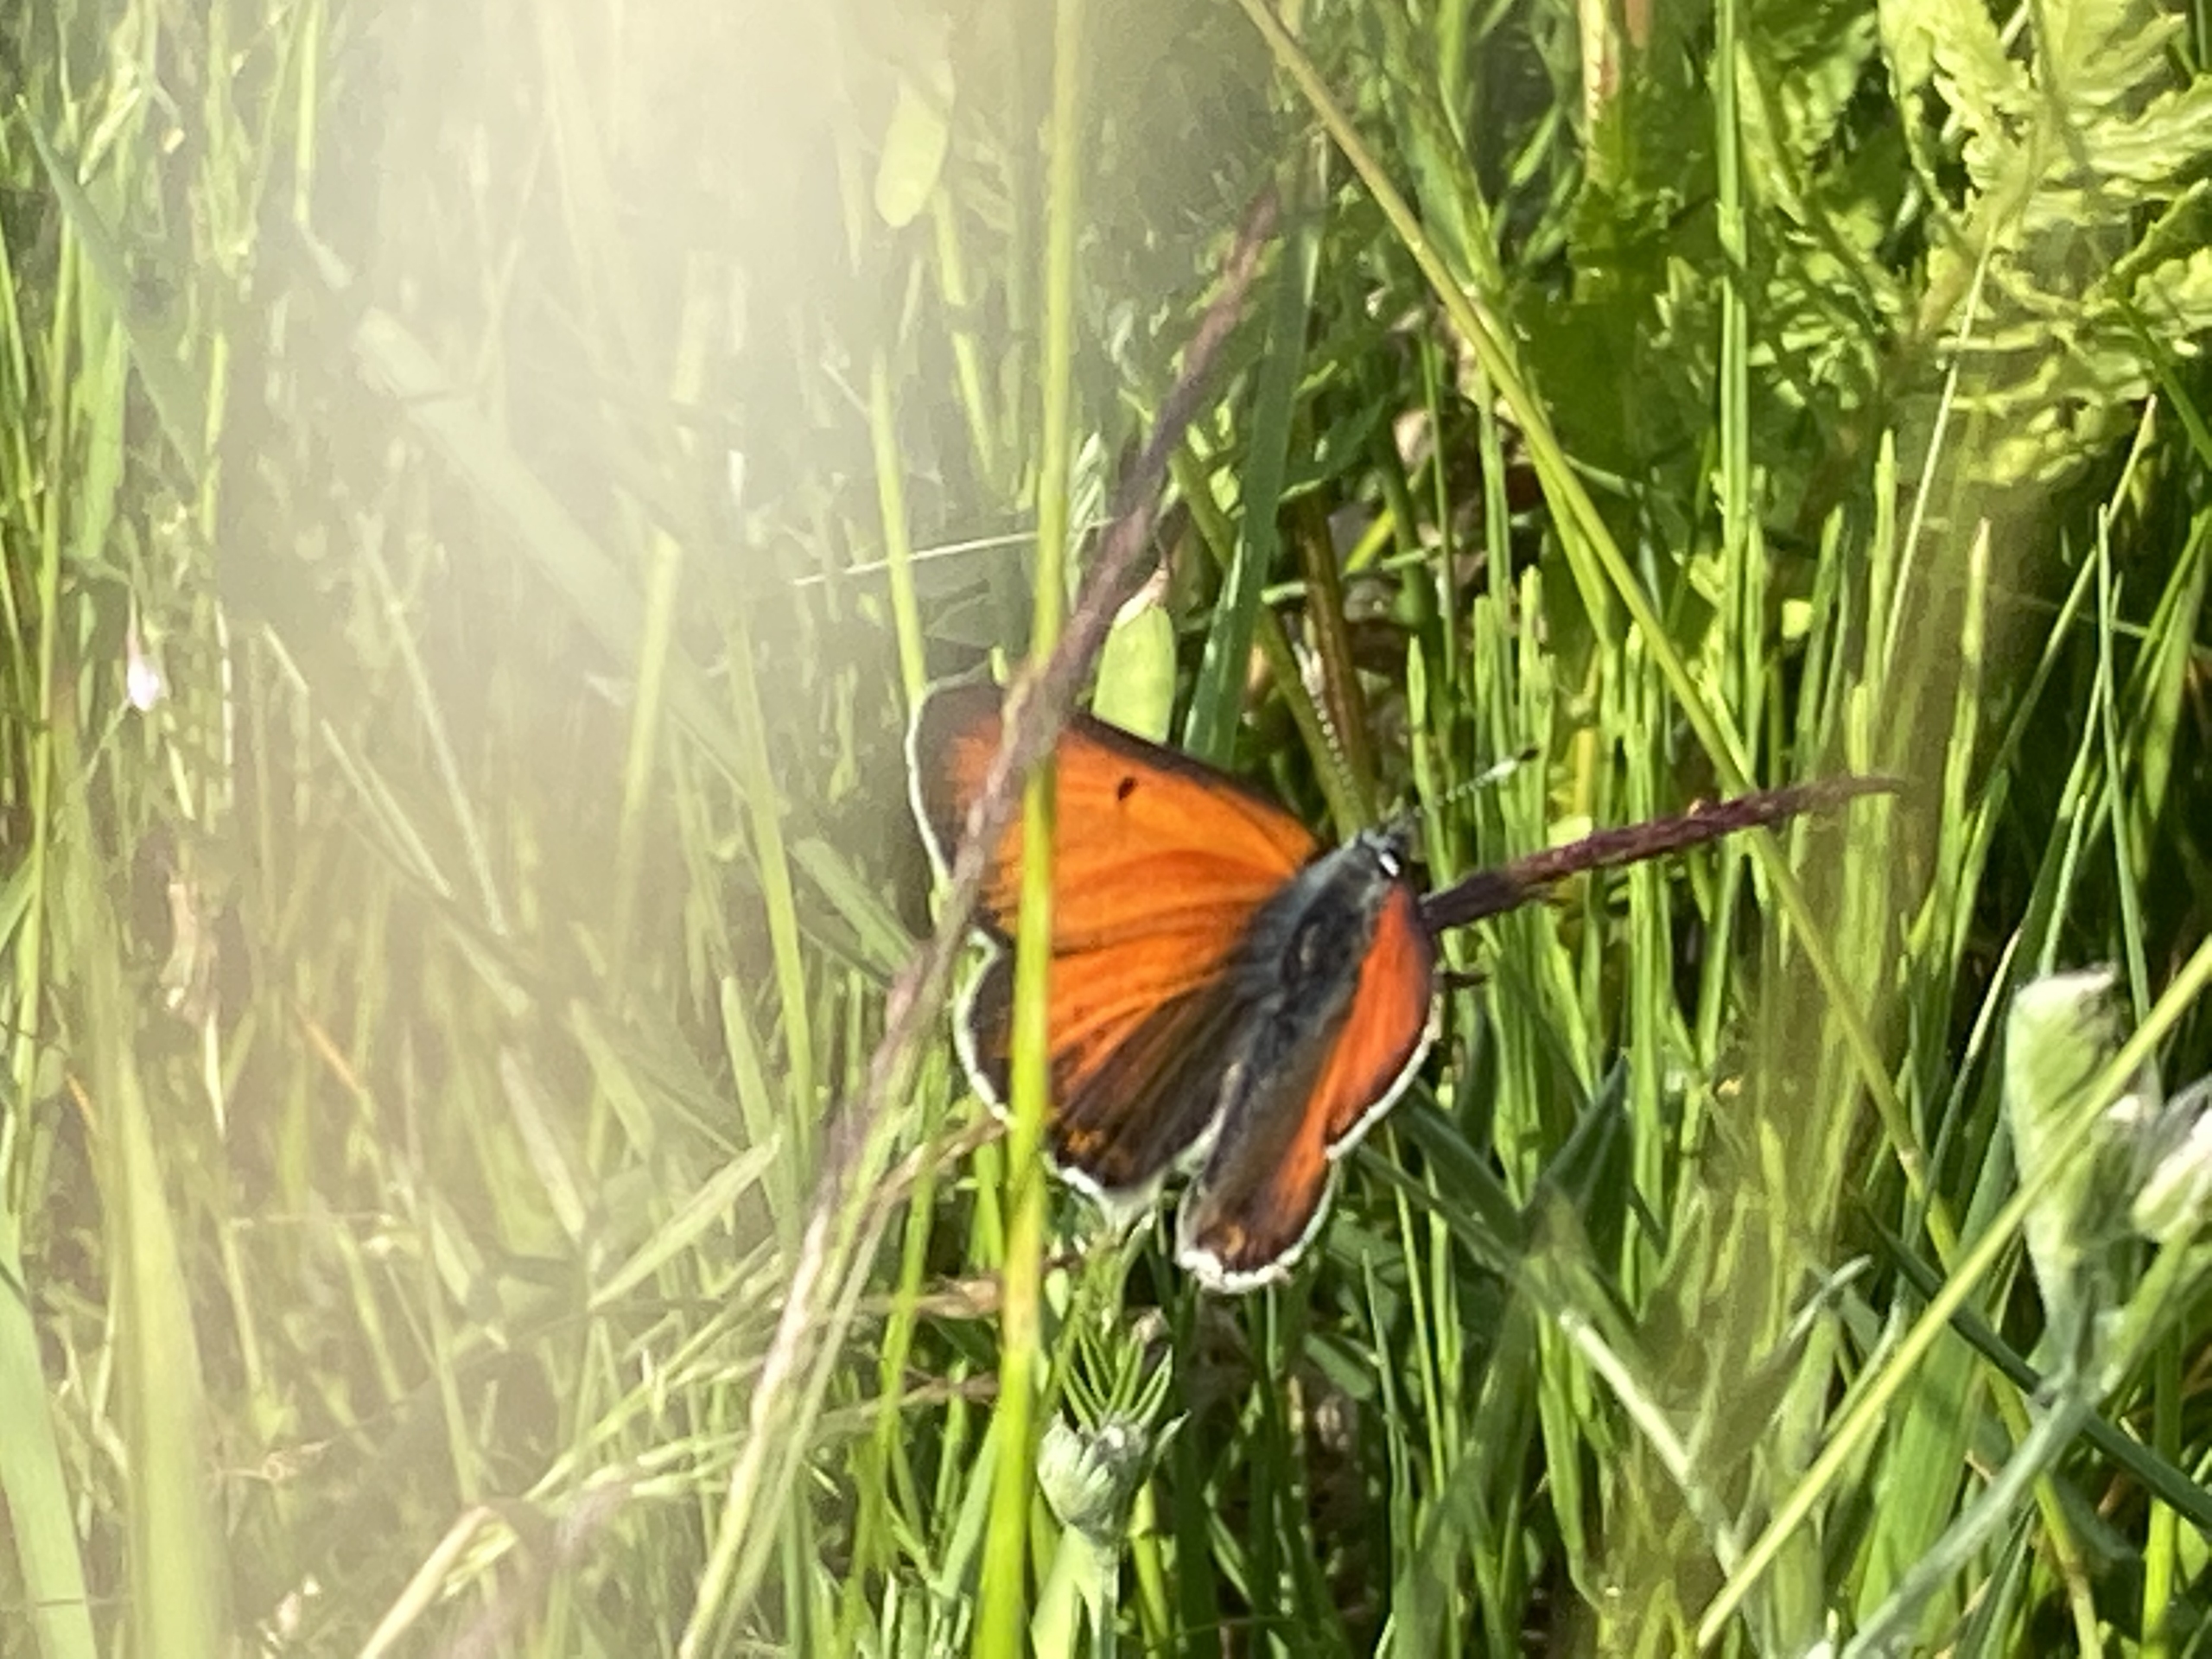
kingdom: Animalia
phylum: Arthropoda
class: Insecta
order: Lepidoptera
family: Lycaenidae
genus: Palaeochrysophanus
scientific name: Palaeochrysophanus hippothoe
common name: Violetrandet ildfugl
